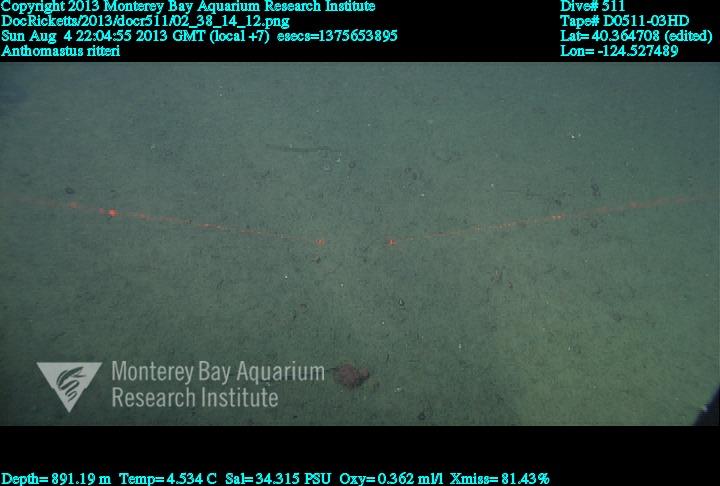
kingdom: Animalia
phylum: Cnidaria
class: Anthozoa
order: Scleralcyonacea
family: Coralliidae
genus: Heteropolypus
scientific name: Heteropolypus ritteri
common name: Ritter's soft coral
